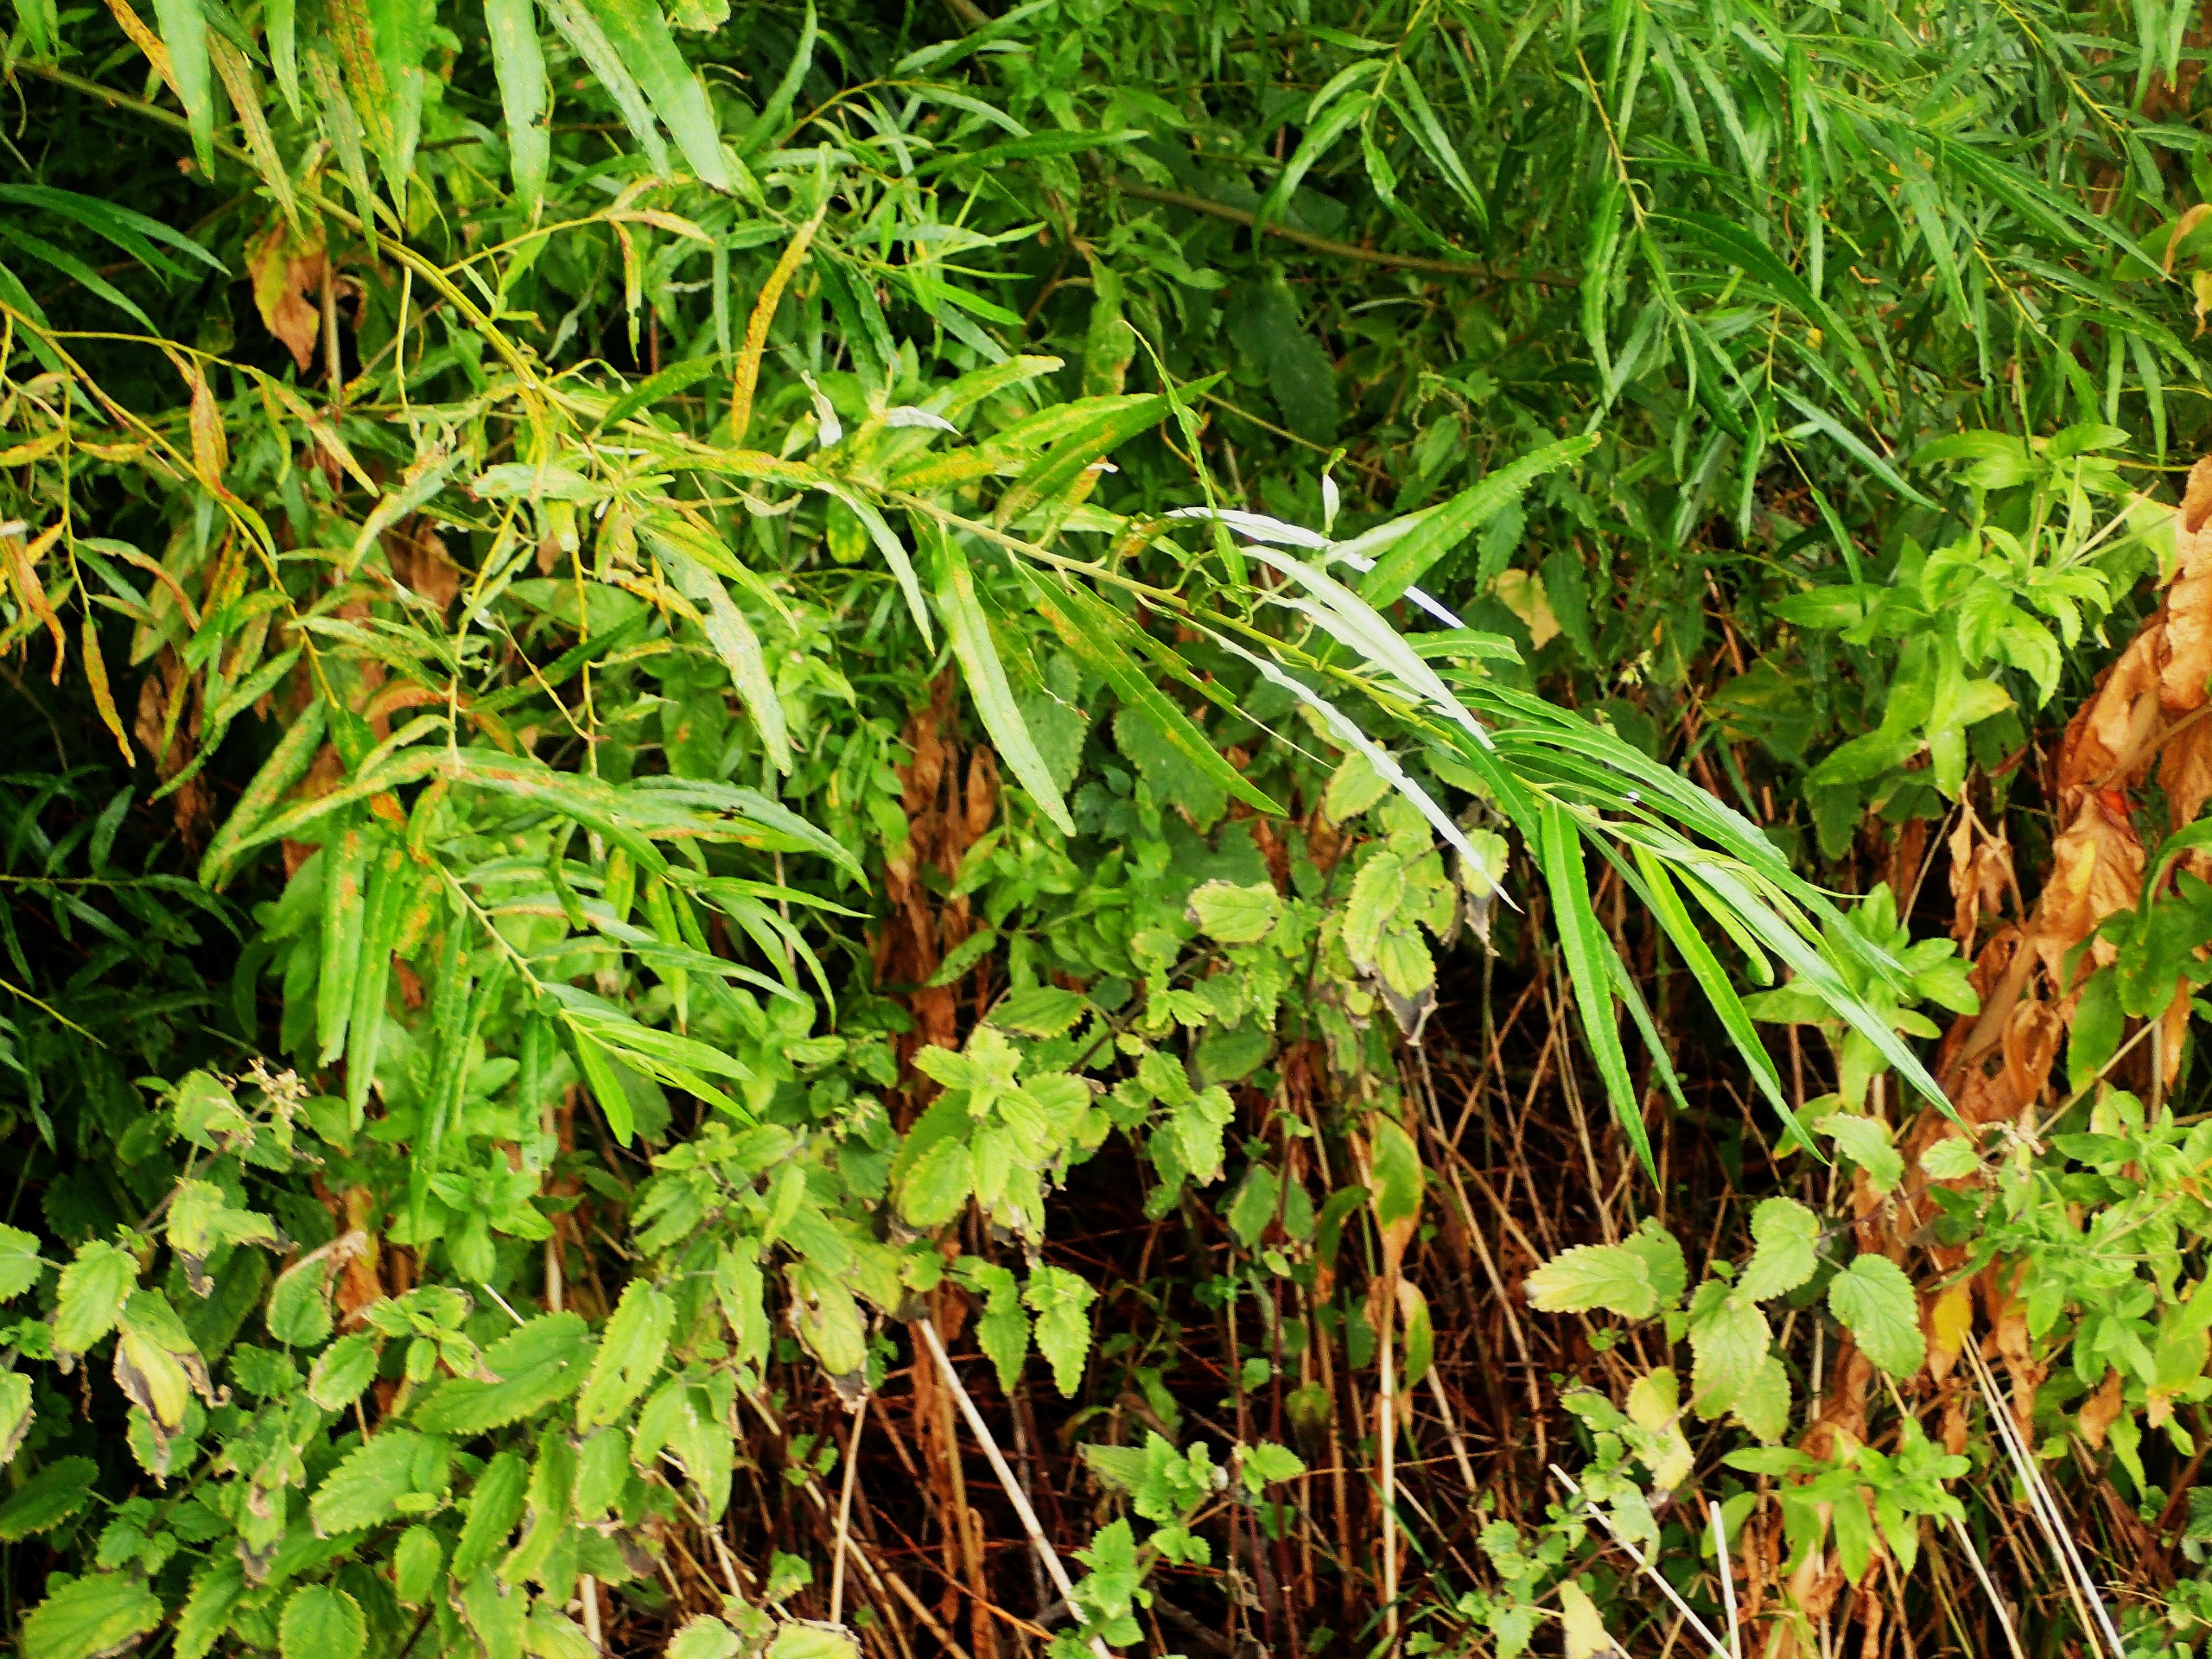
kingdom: Plantae
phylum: Tracheophyta
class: Magnoliopsida
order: Malpighiales
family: Salicaceae
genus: Salix
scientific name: Salix viminalis
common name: Bånd-pil
